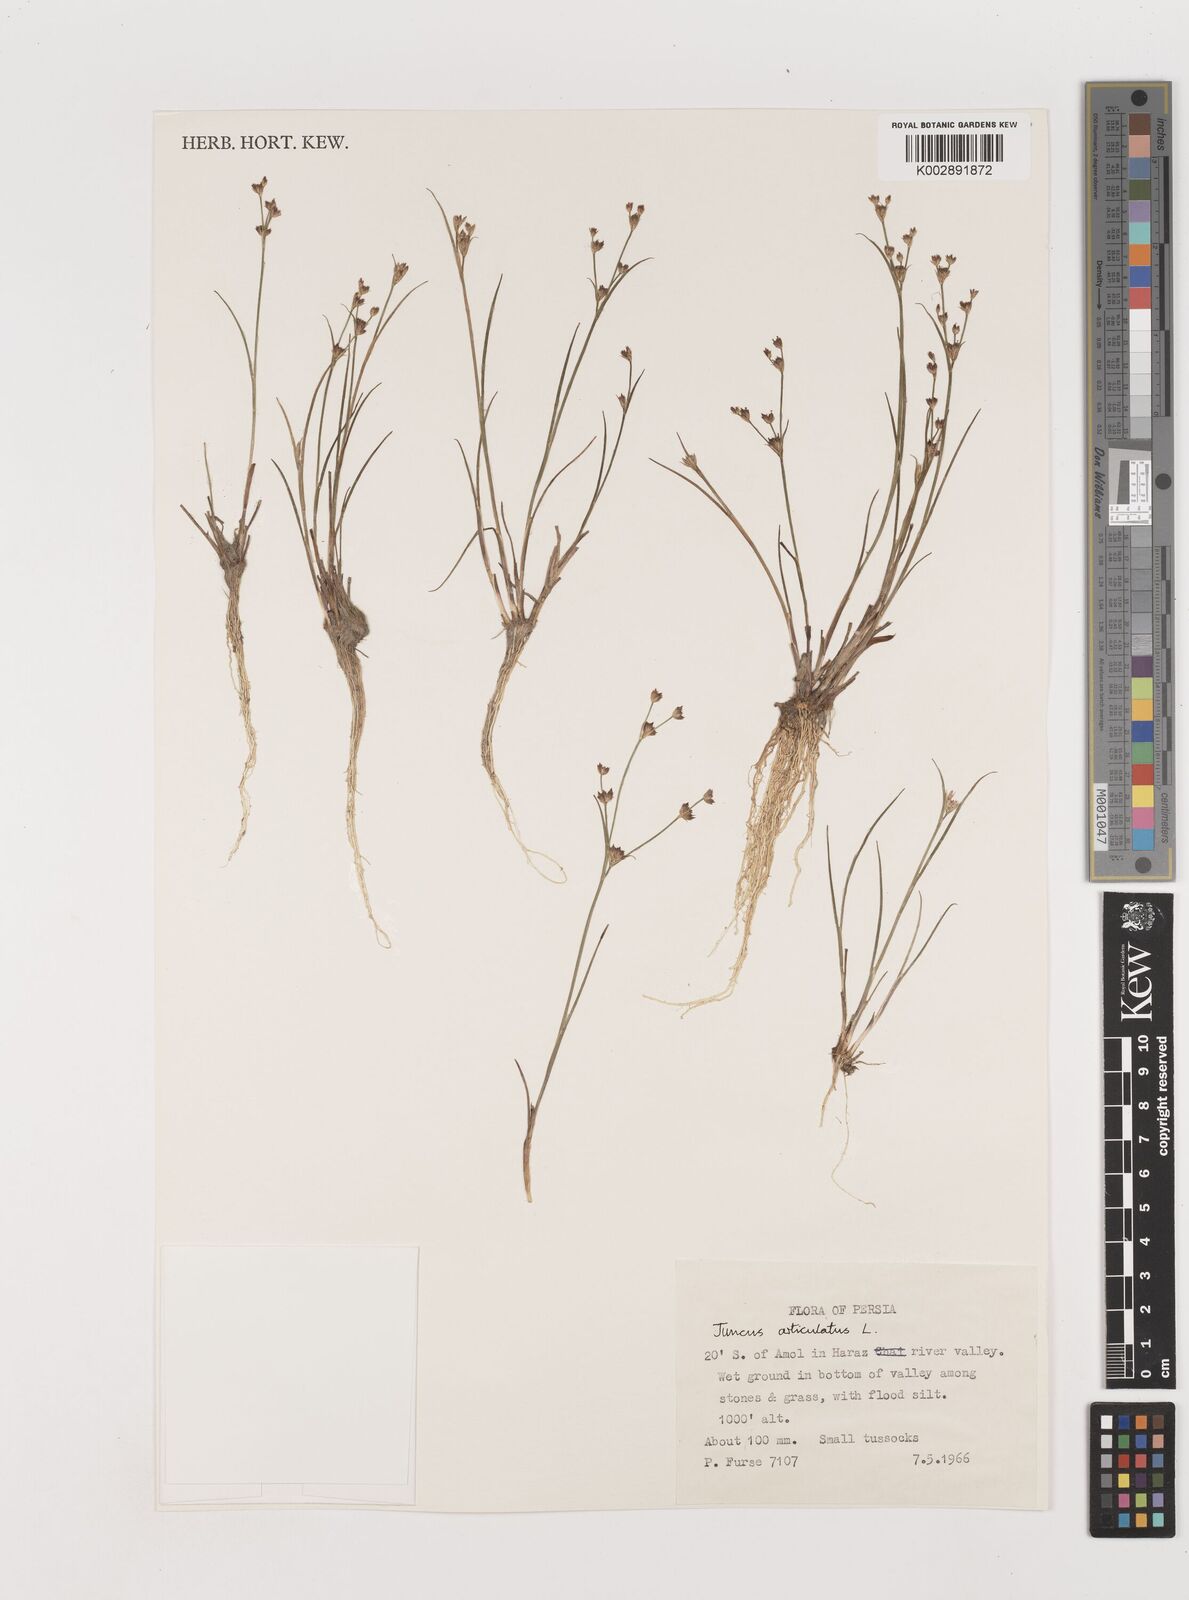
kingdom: Plantae
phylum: Tracheophyta
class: Liliopsida
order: Poales
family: Juncaceae
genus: Juncus
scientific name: Juncus articulatus
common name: Jointed rush
